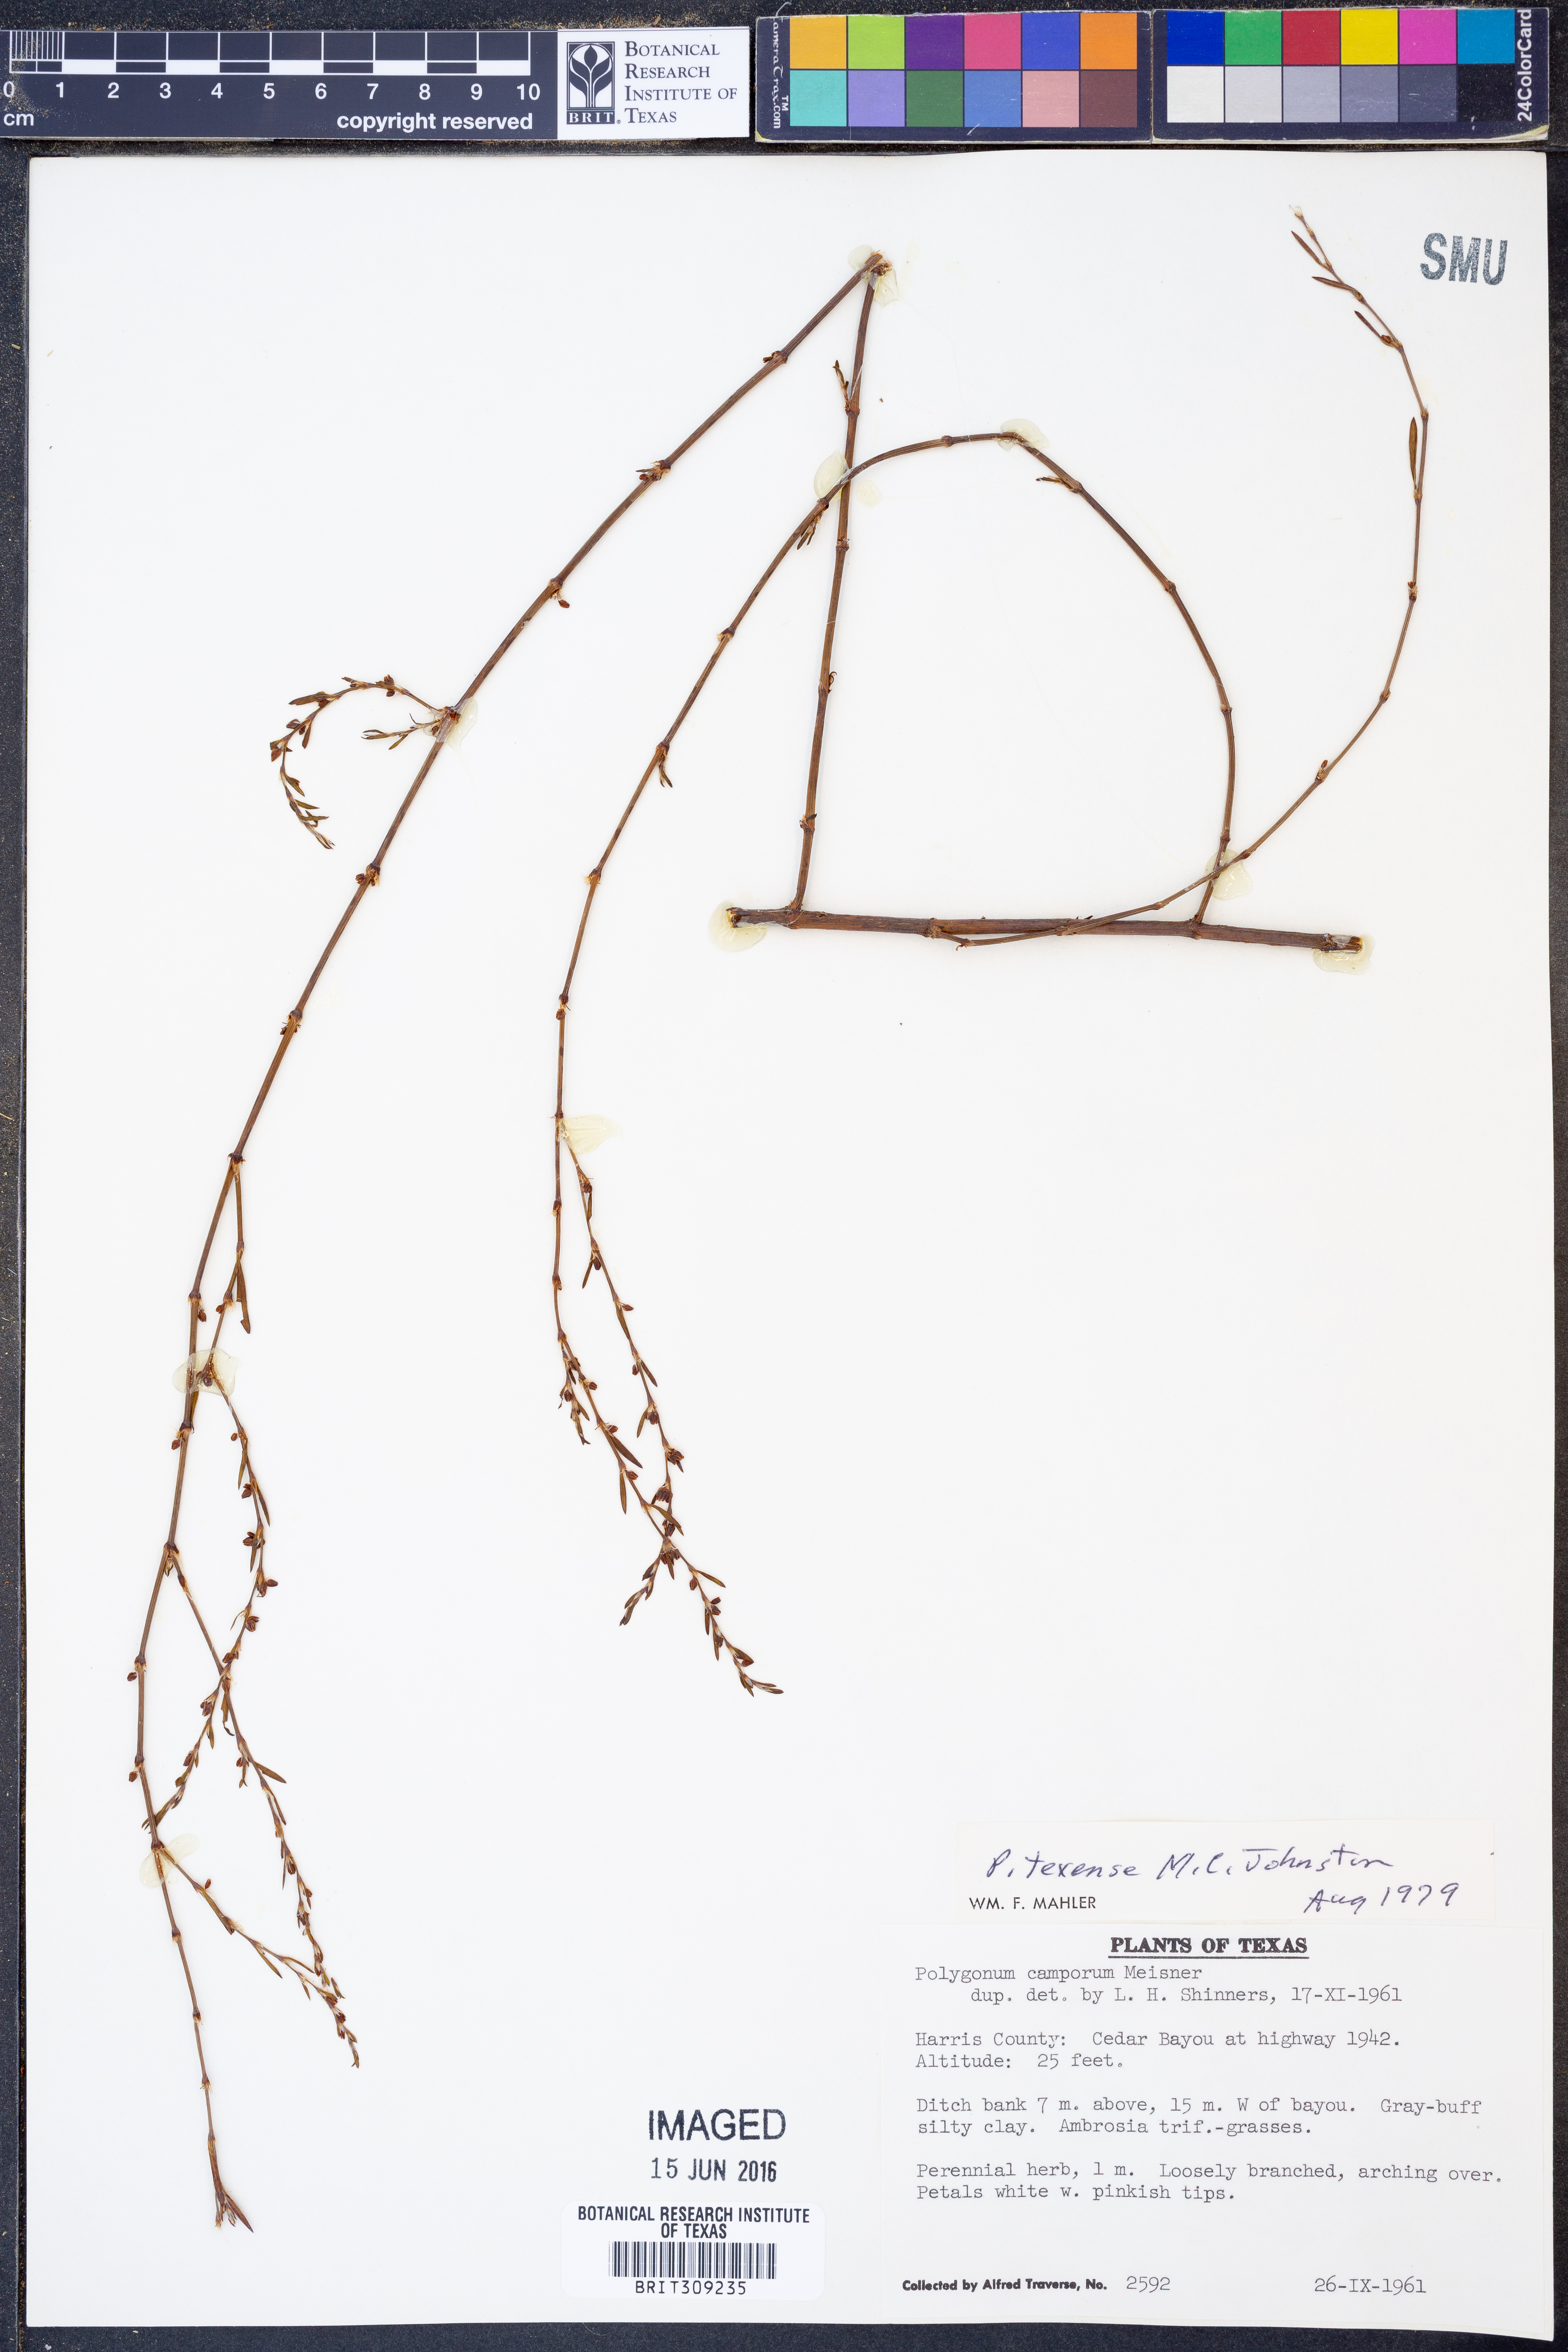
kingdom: Plantae
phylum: Tracheophyta
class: Magnoliopsida
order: Caryophyllales
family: Polygonaceae
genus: Polygonum
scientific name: Polygonum striatulum
